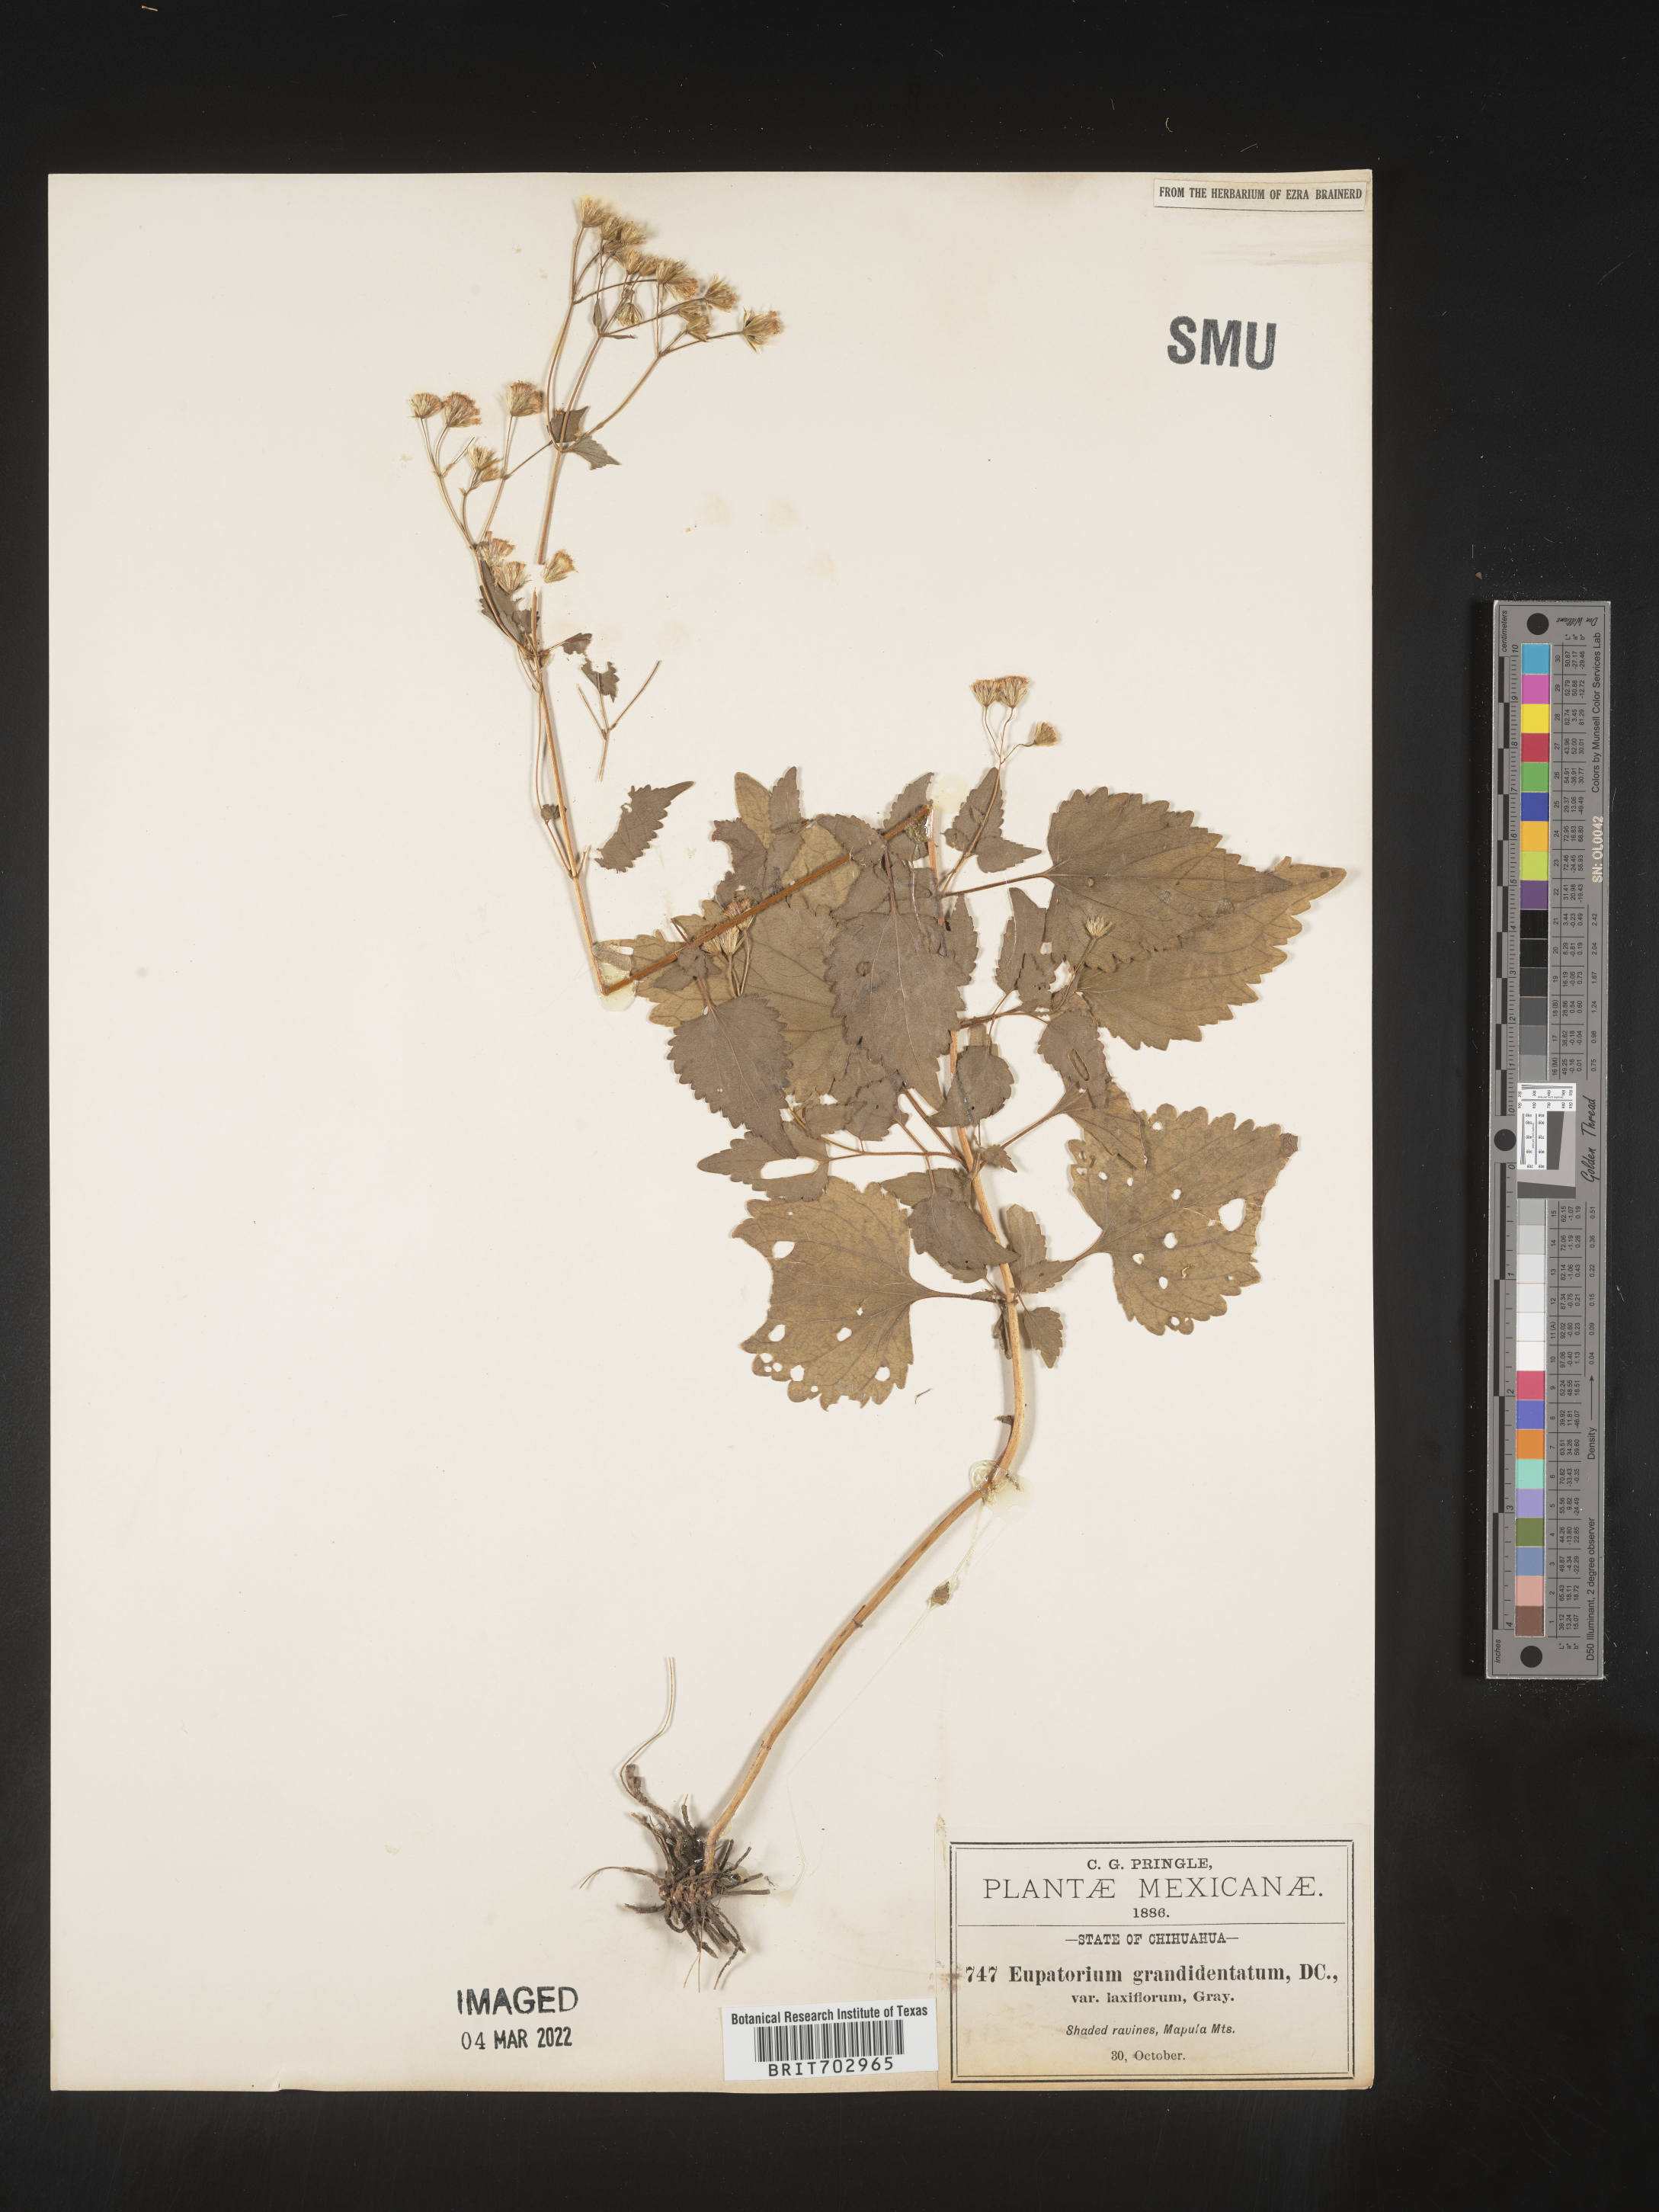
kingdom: Plantae
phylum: Tracheophyta
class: Magnoliopsida
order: Asterales
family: Asteraceae
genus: Eupatorium
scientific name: Eupatorium
